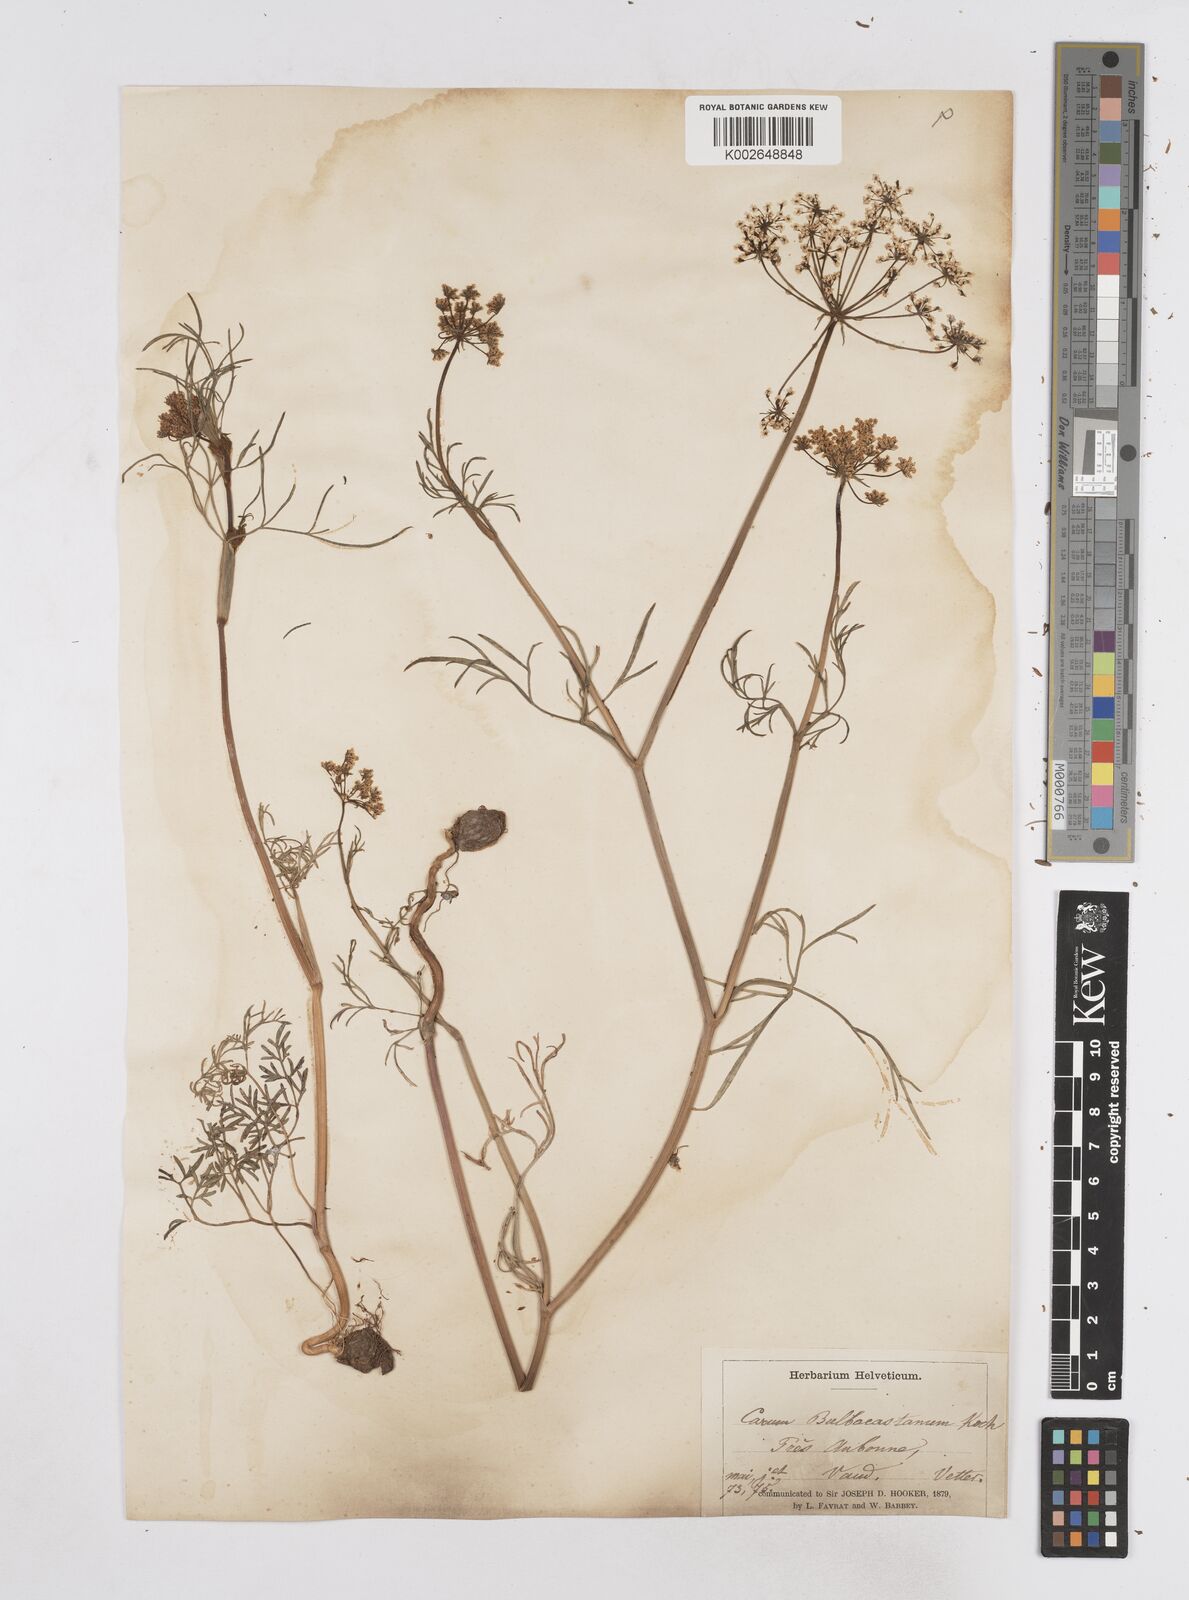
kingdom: Plantae
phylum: Tracheophyta
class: Magnoliopsida
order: Apiales
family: Apiaceae
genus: Bunium
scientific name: Bunium bulbocastanum
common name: Great pignut
